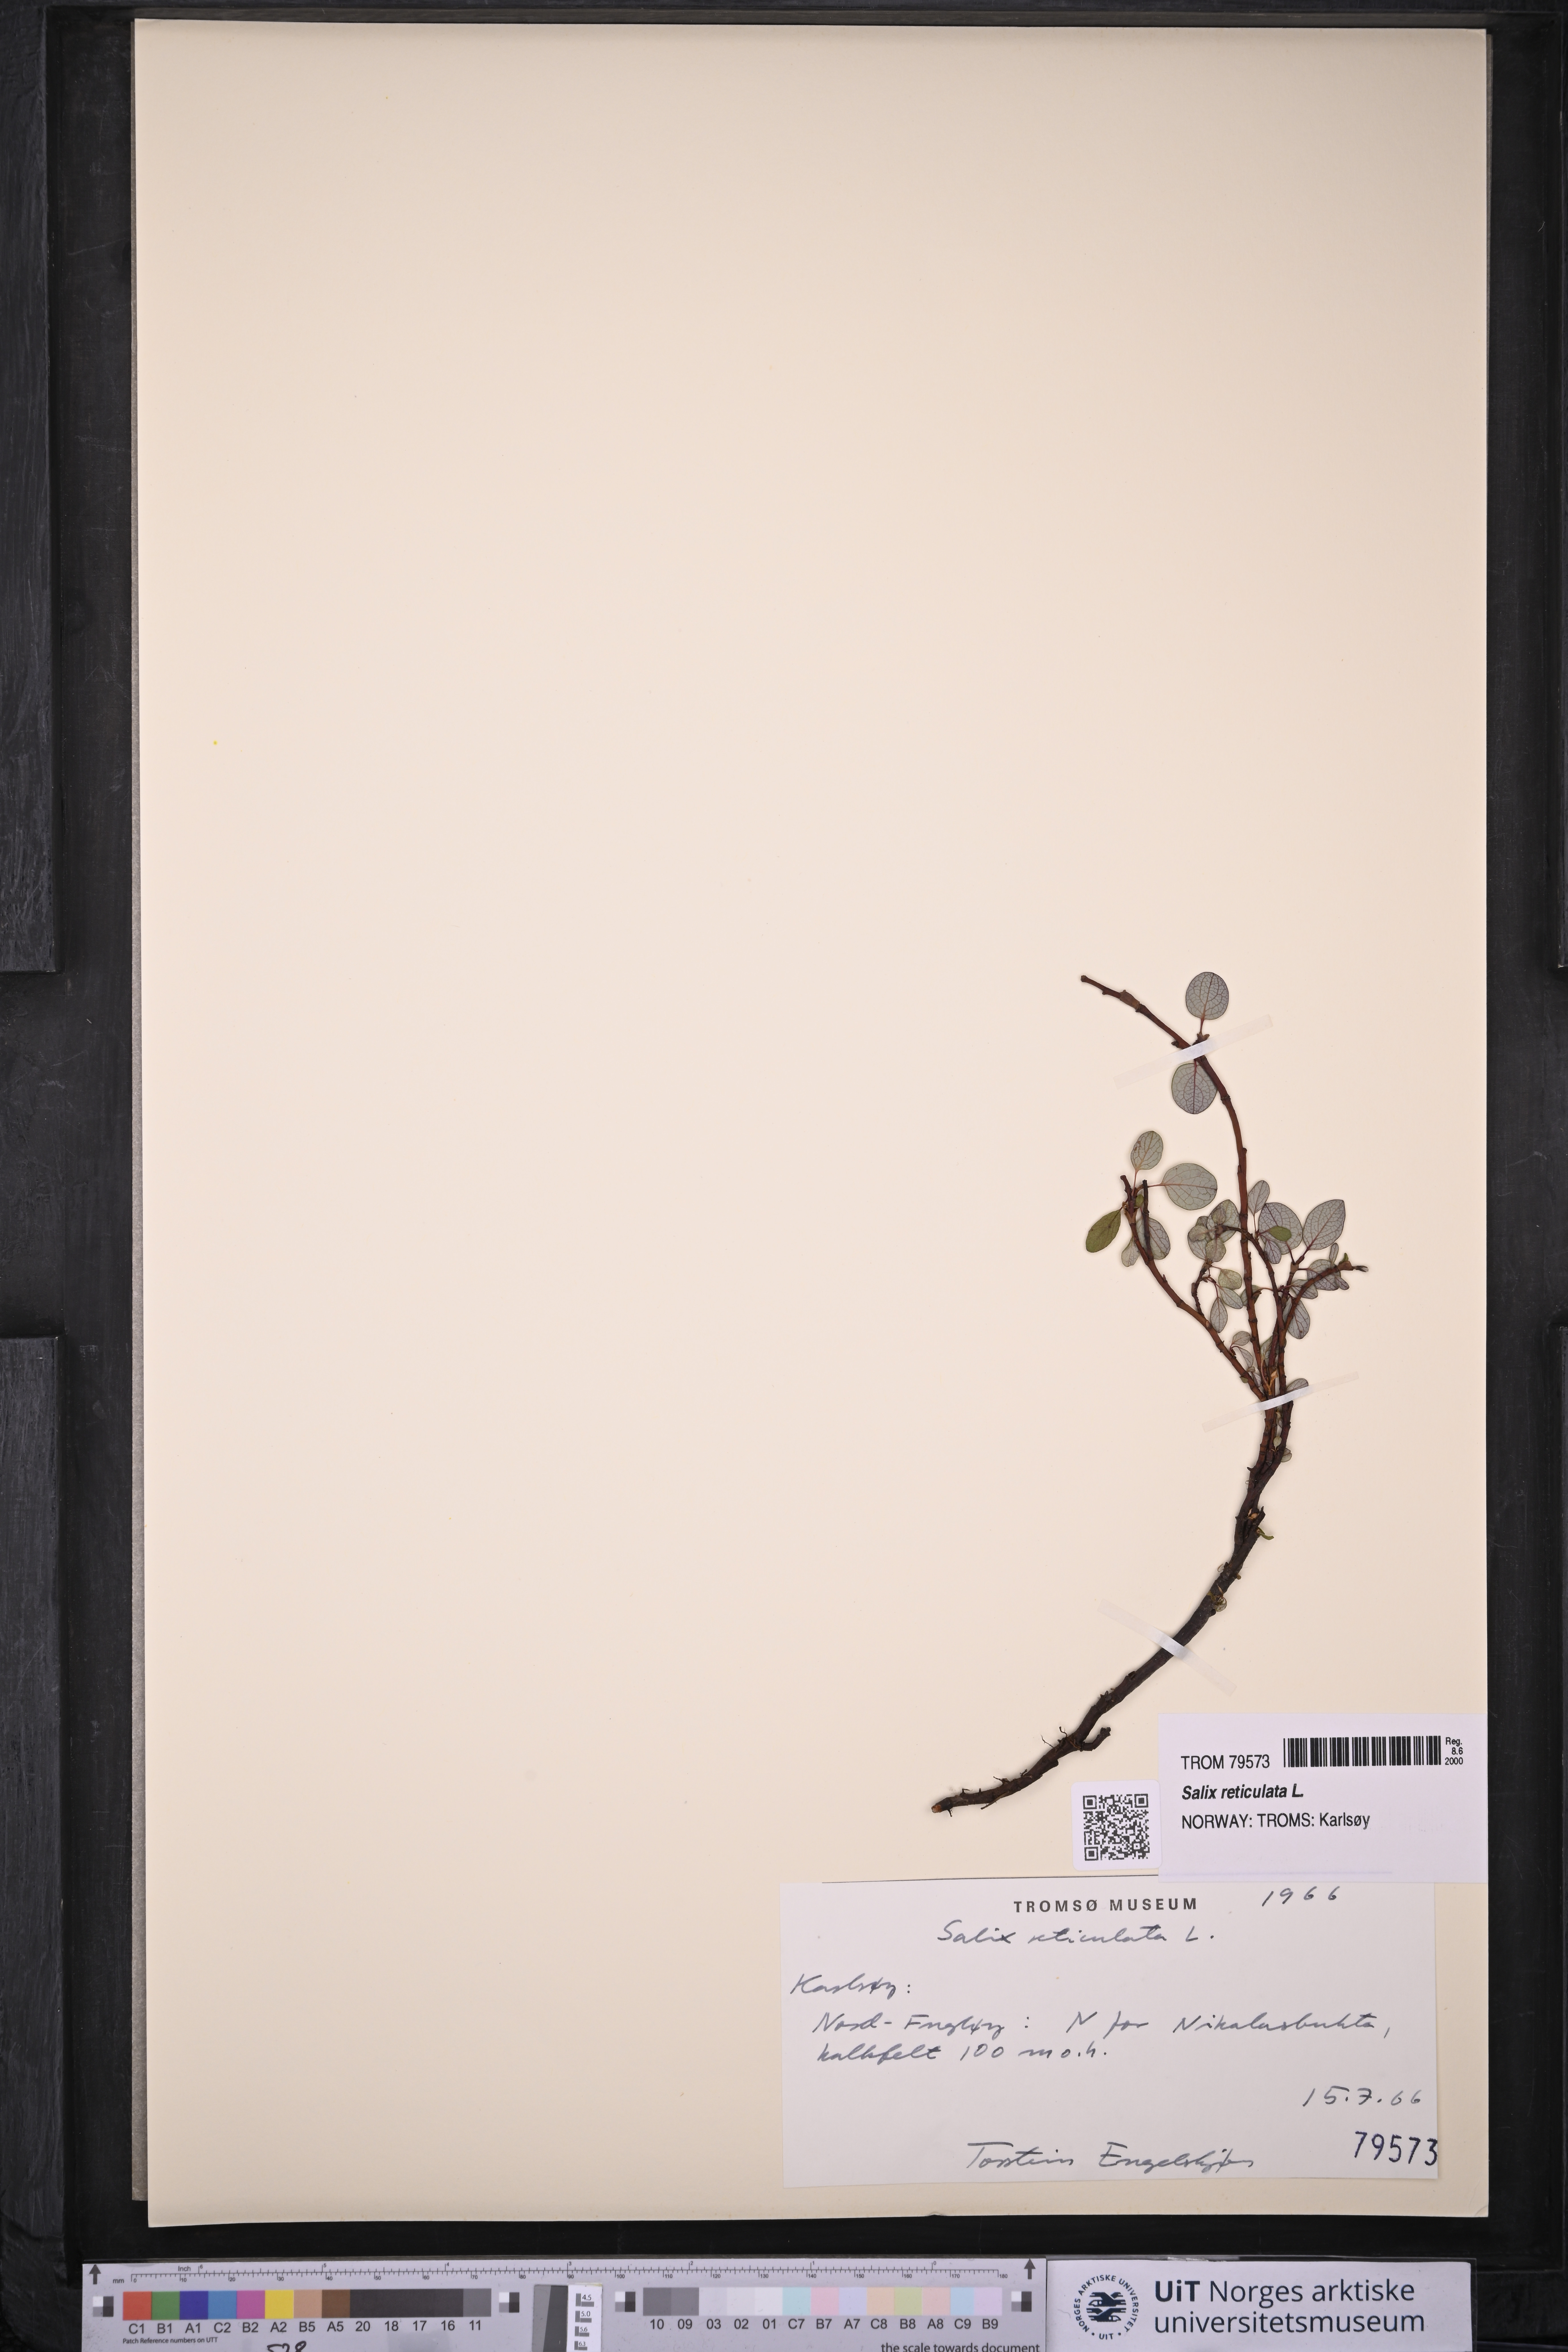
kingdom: Plantae
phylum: Tracheophyta
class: Magnoliopsida
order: Malpighiales
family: Salicaceae
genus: Salix
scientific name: Salix reticulata
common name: Net-leaved willow
